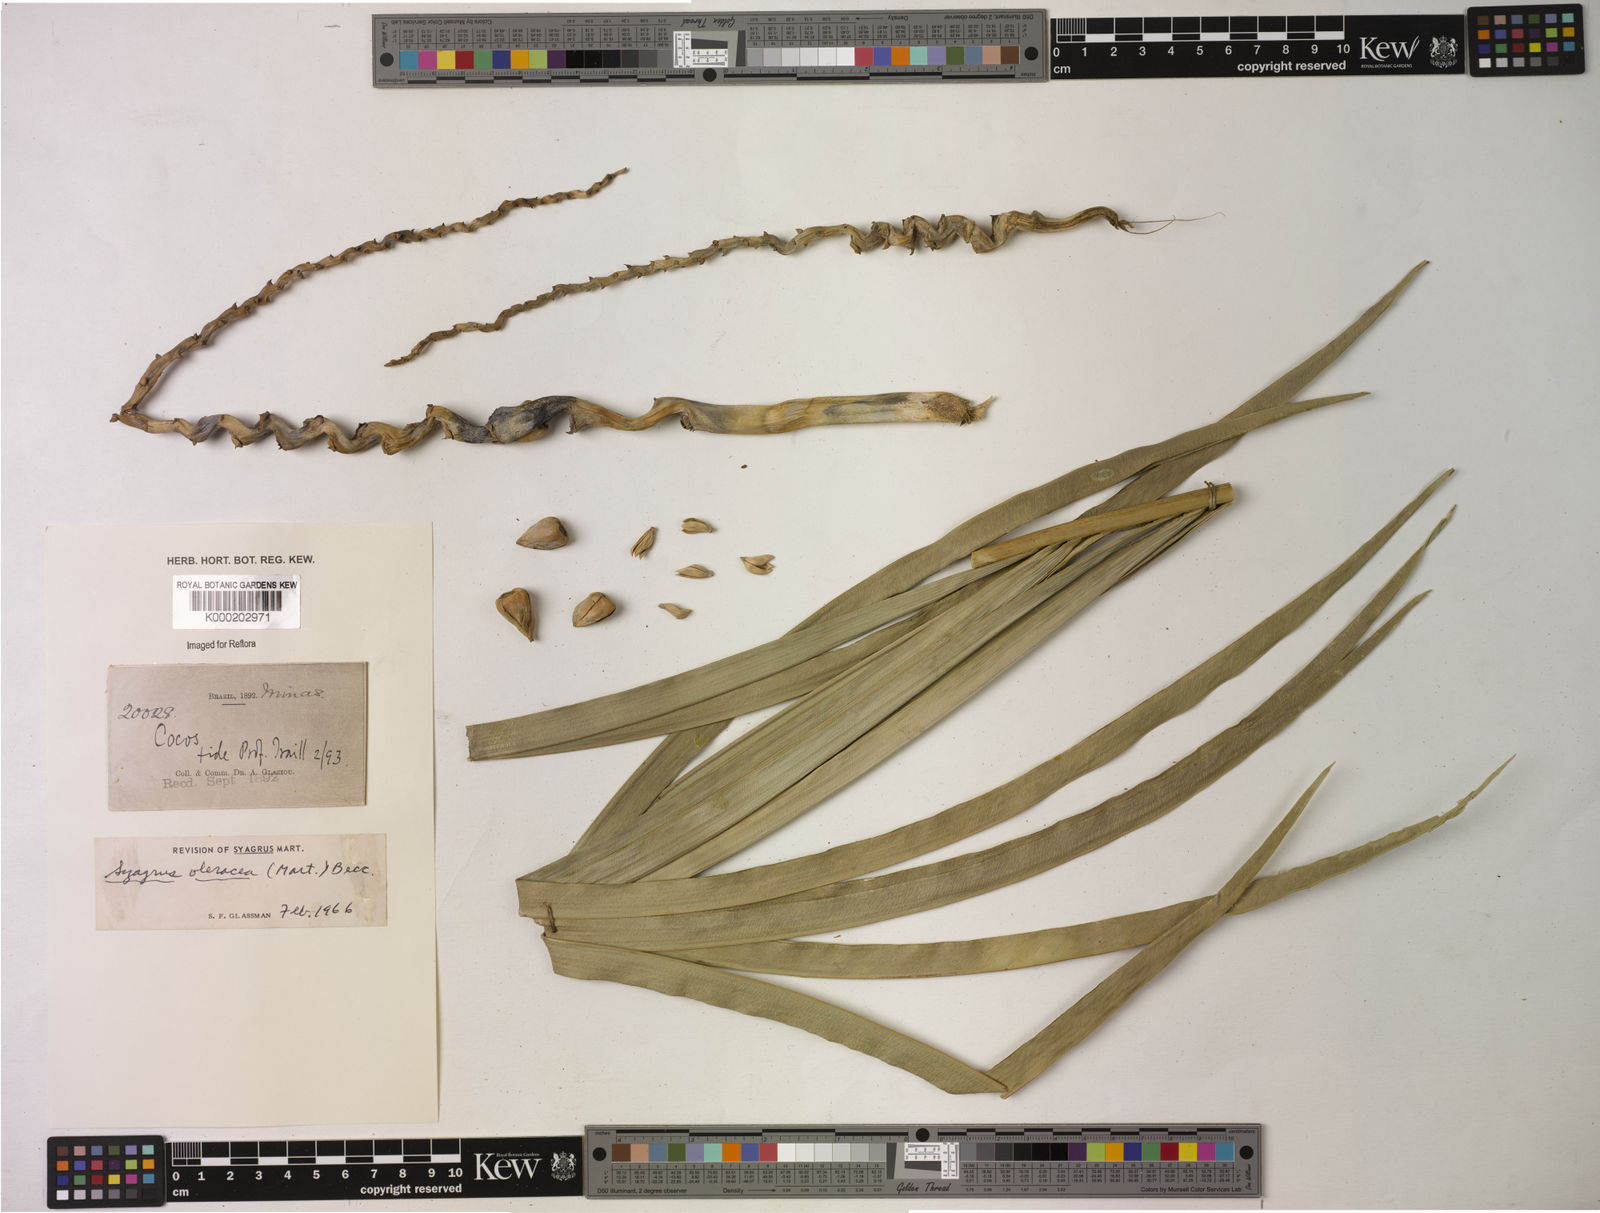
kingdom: Plantae
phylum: Tracheophyta
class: Liliopsida
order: Arecales
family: Arecaceae
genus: Syagrus
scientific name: Syagrus oleracea
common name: Catole palm
